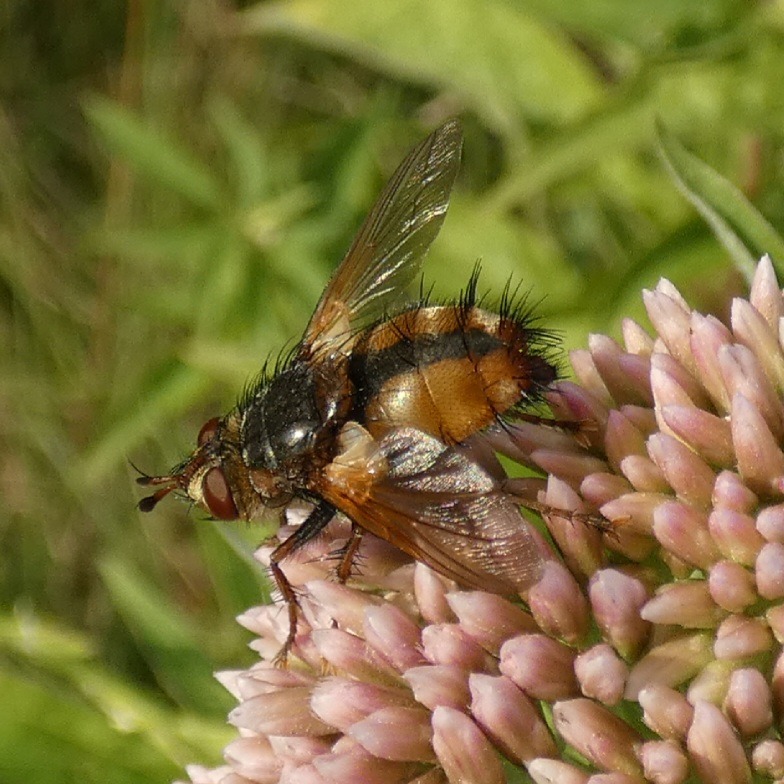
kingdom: Animalia
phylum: Arthropoda
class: Insecta
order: Diptera
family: Tachinidae
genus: Tachina
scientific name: Tachina fera
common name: Mellemfluen oskar
